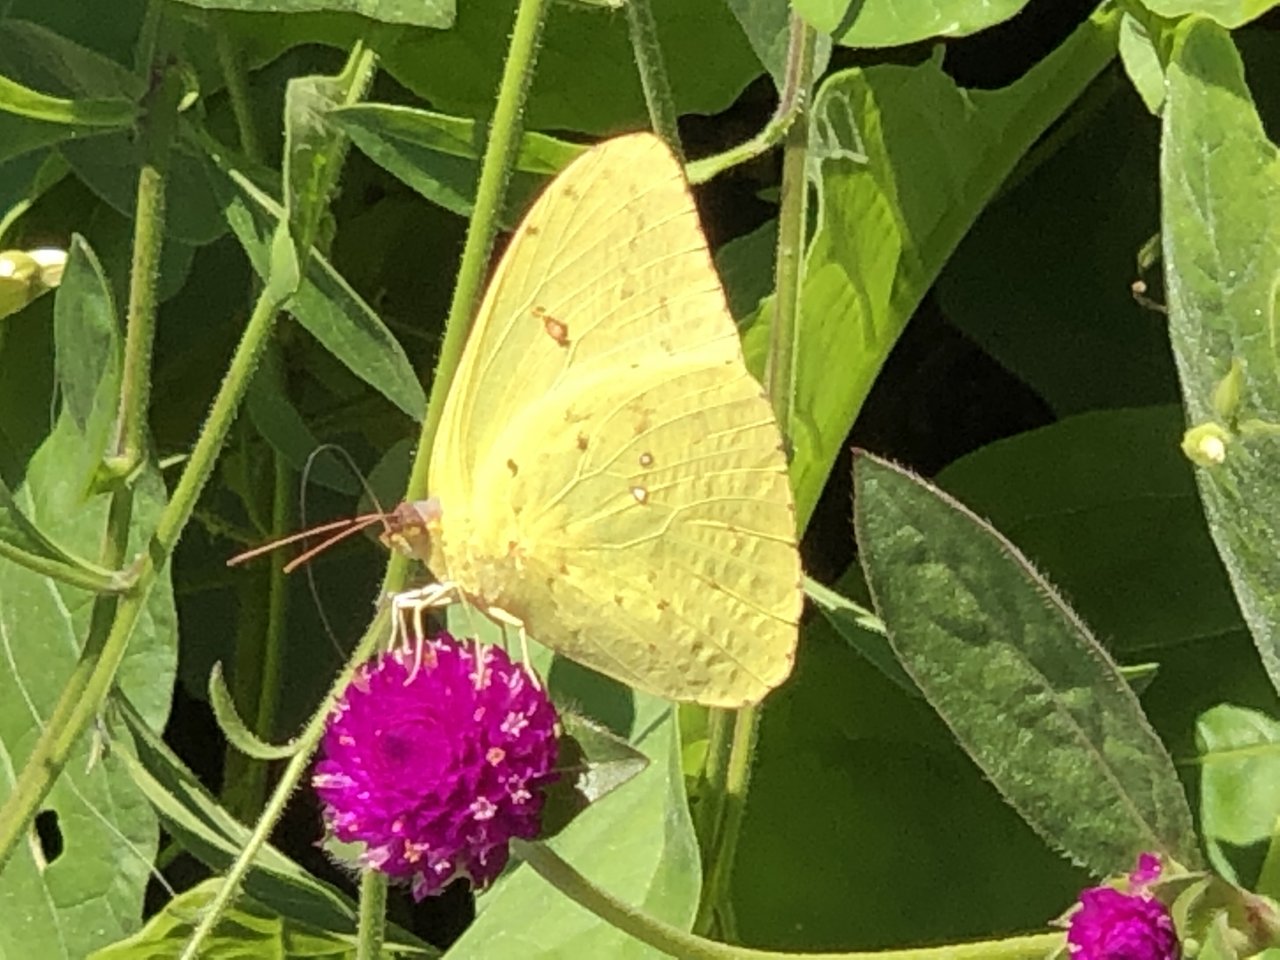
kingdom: Animalia
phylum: Arthropoda
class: Insecta
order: Lepidoptera
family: Pieridae
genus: Phoebis
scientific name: Phoebis sennae
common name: Cloudless Sulphur
